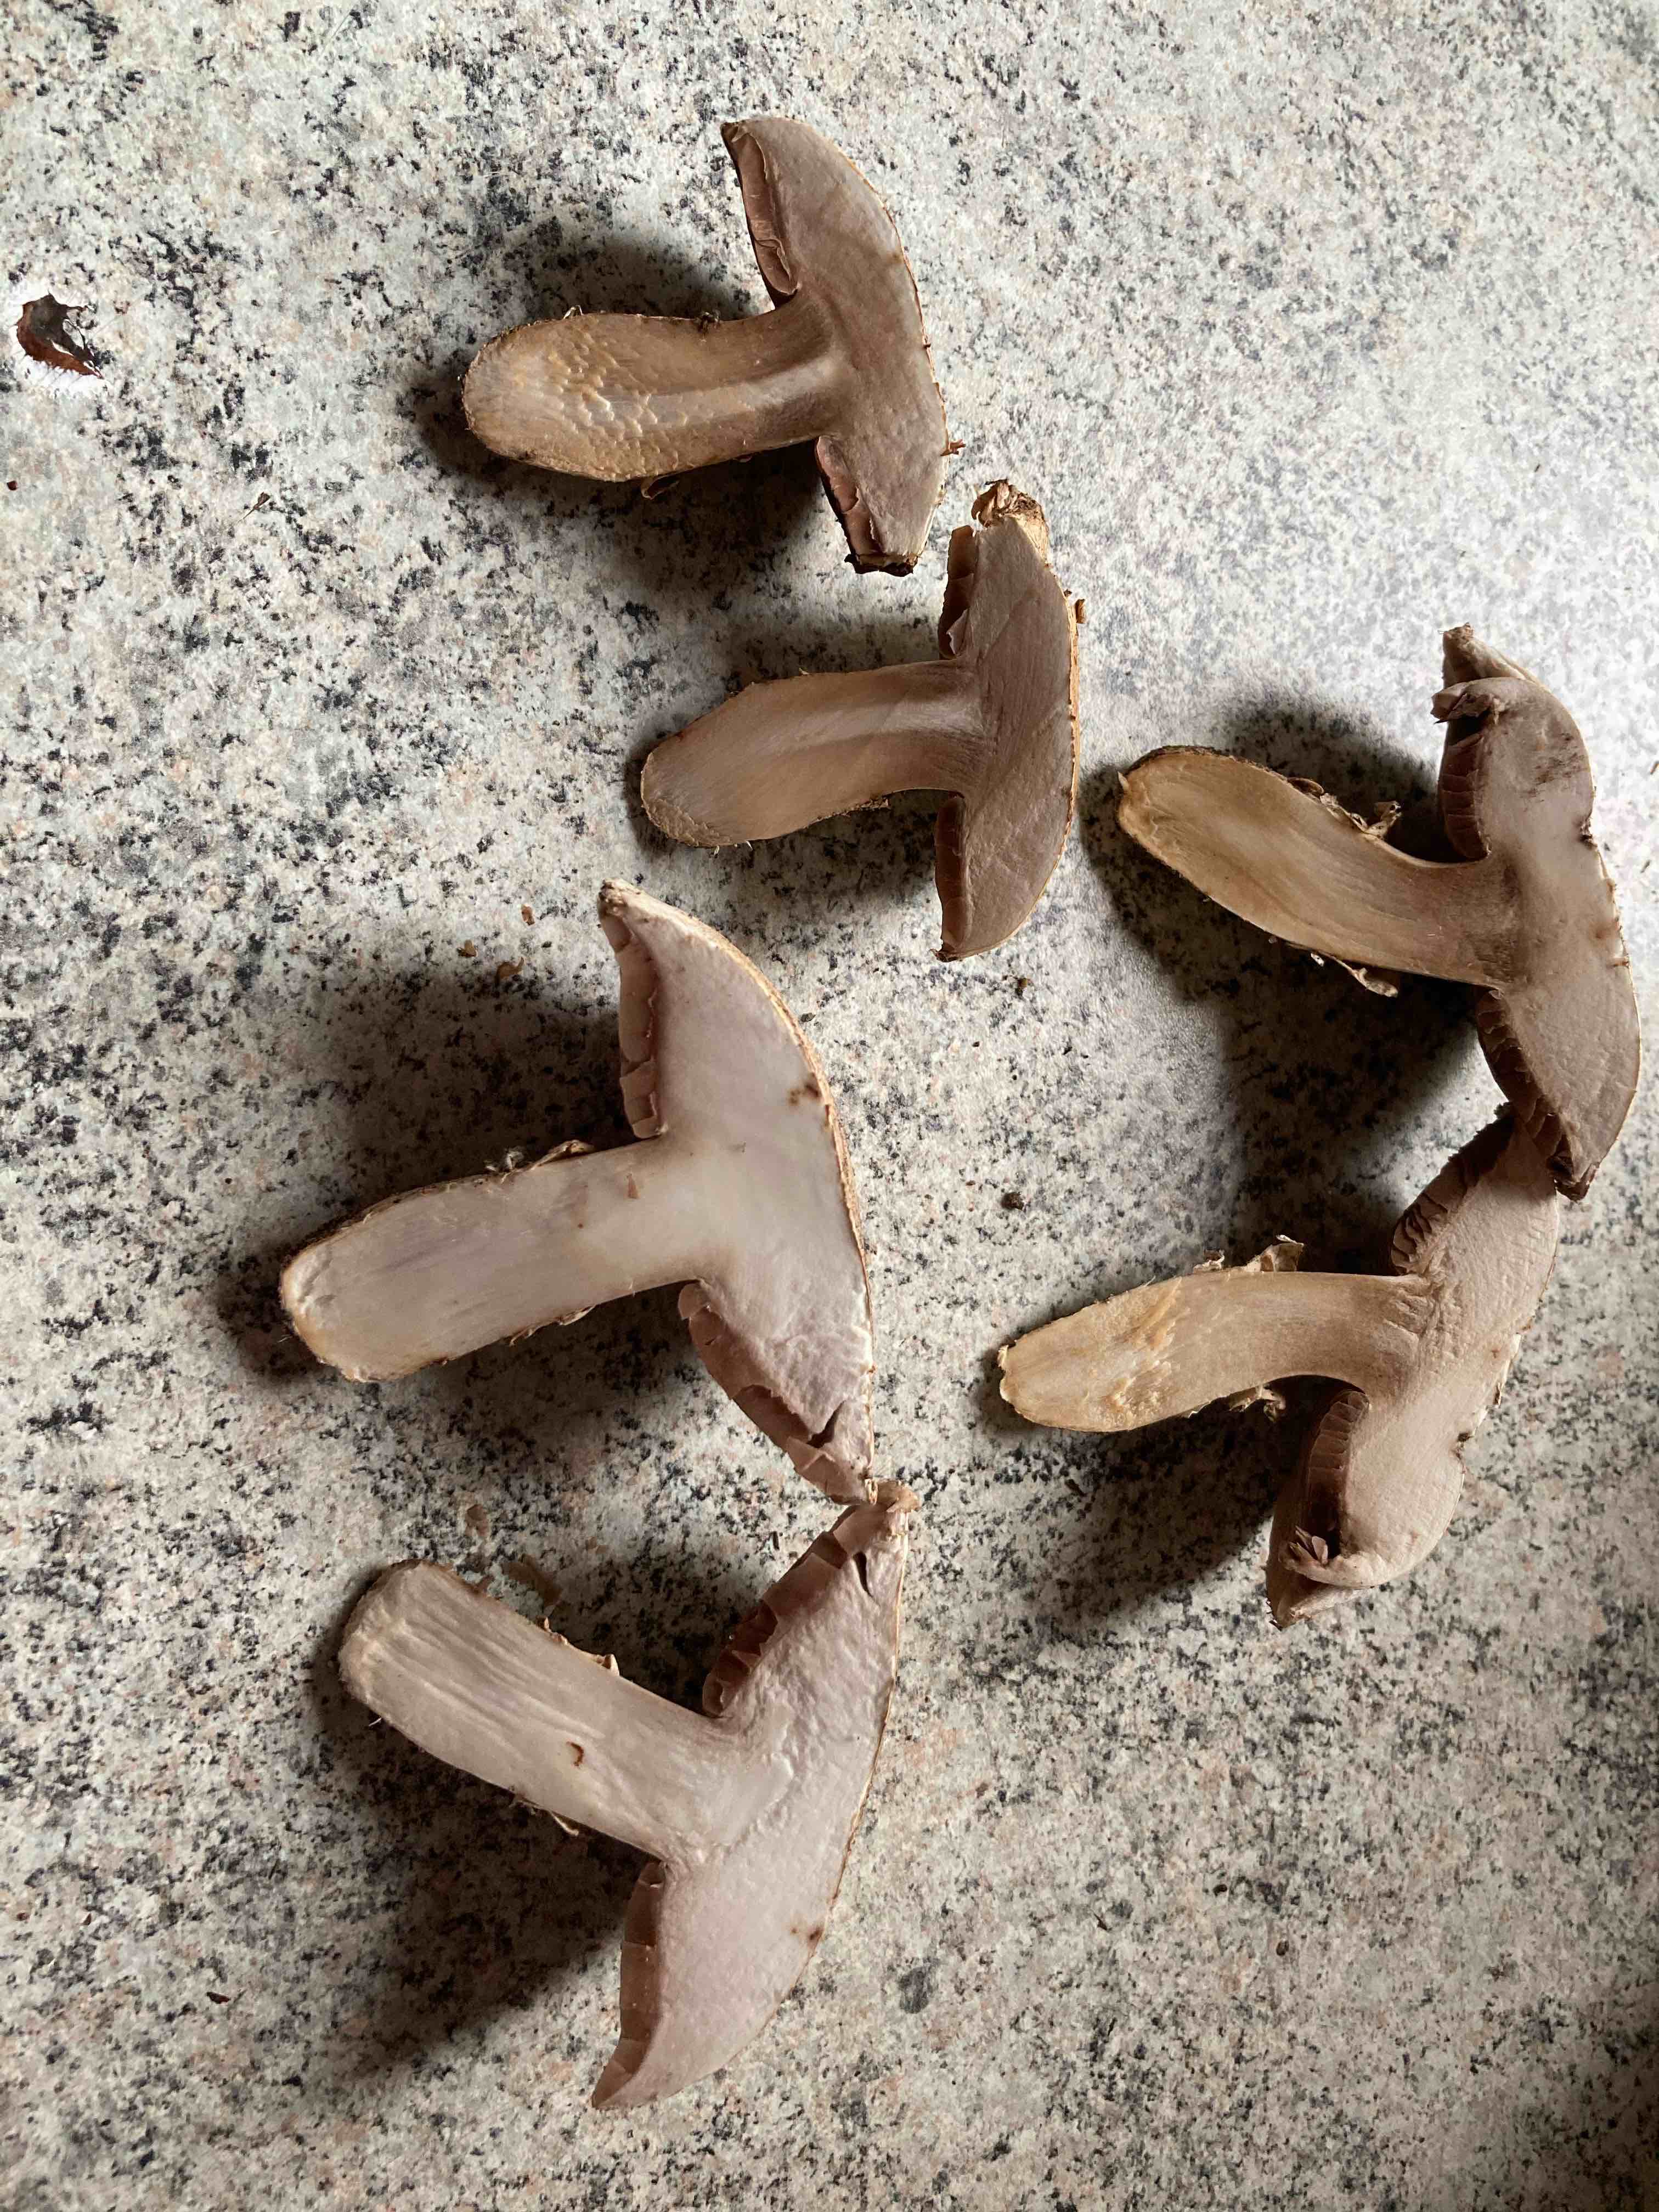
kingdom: Fungi
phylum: Basidiomycota
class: Agaricomycetes
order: Agaricales
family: Agaricaceae
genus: Agaricus
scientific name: Agaricus campestris
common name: mark-champignon
